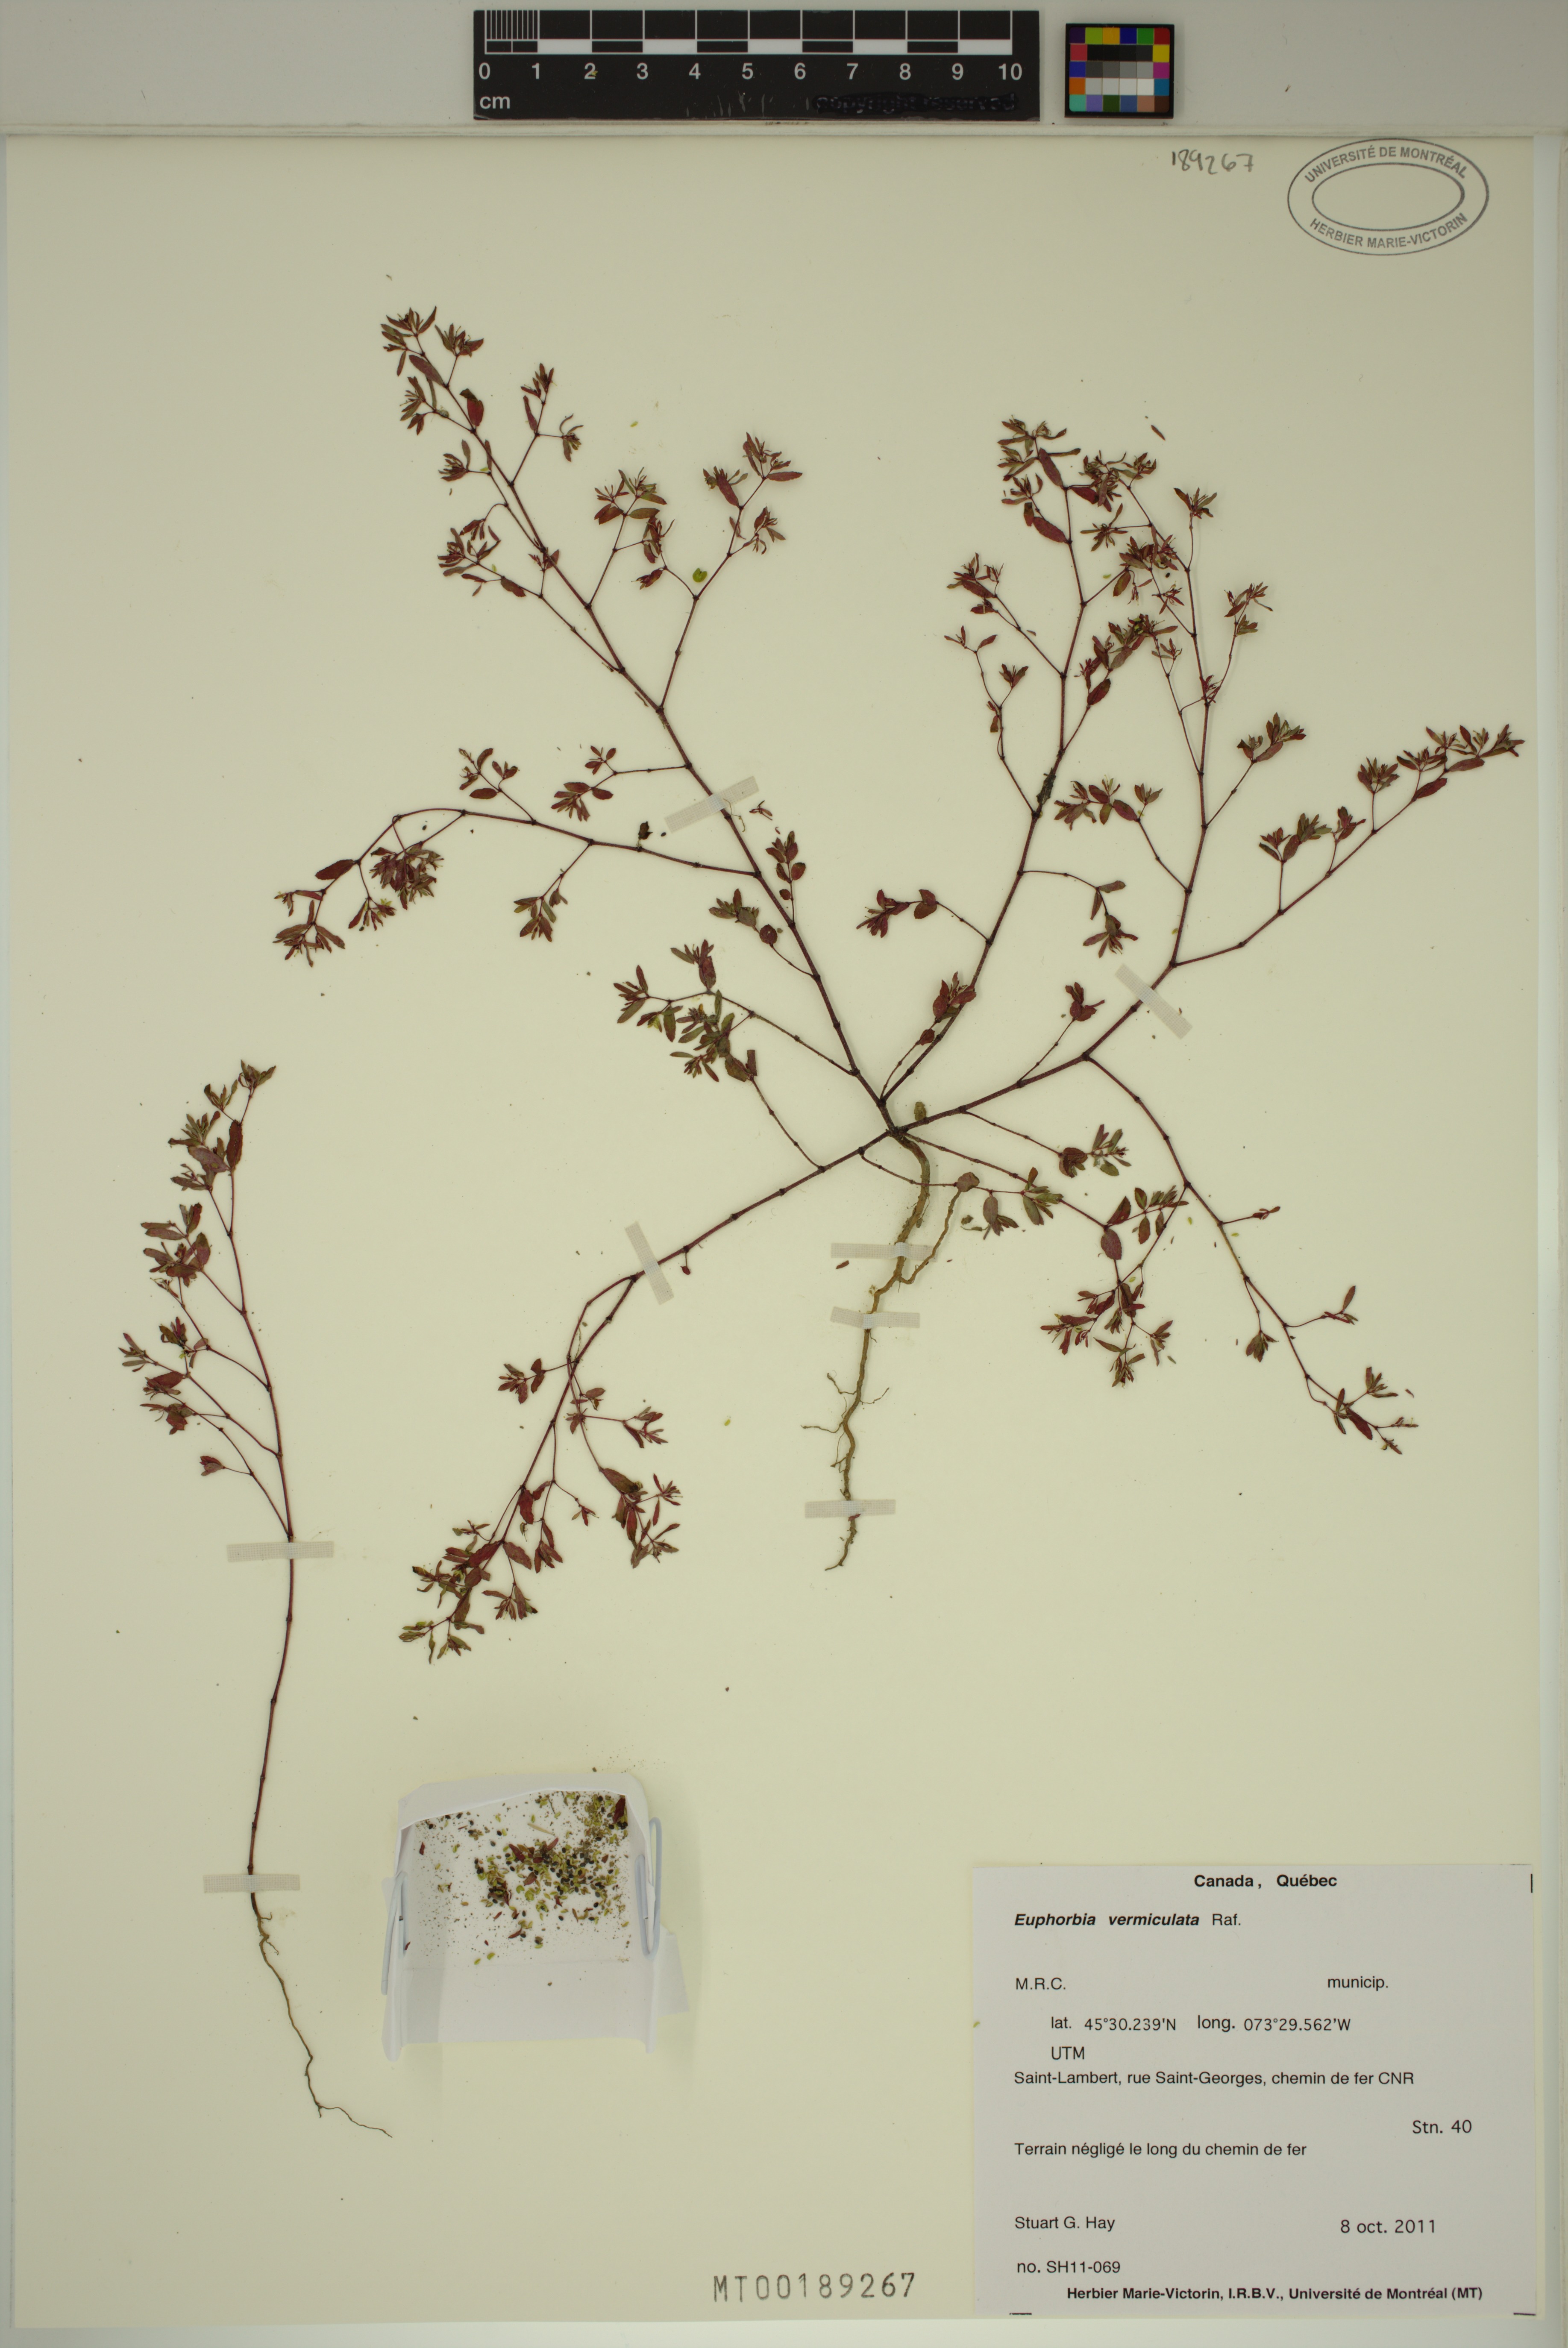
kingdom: Plantae
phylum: Tracheophyta
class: Magnoliopsida
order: Malpighiales
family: Euphorbiaceae
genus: Euphorbia
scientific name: Euphorbia vermiculata
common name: Hairy spurge
